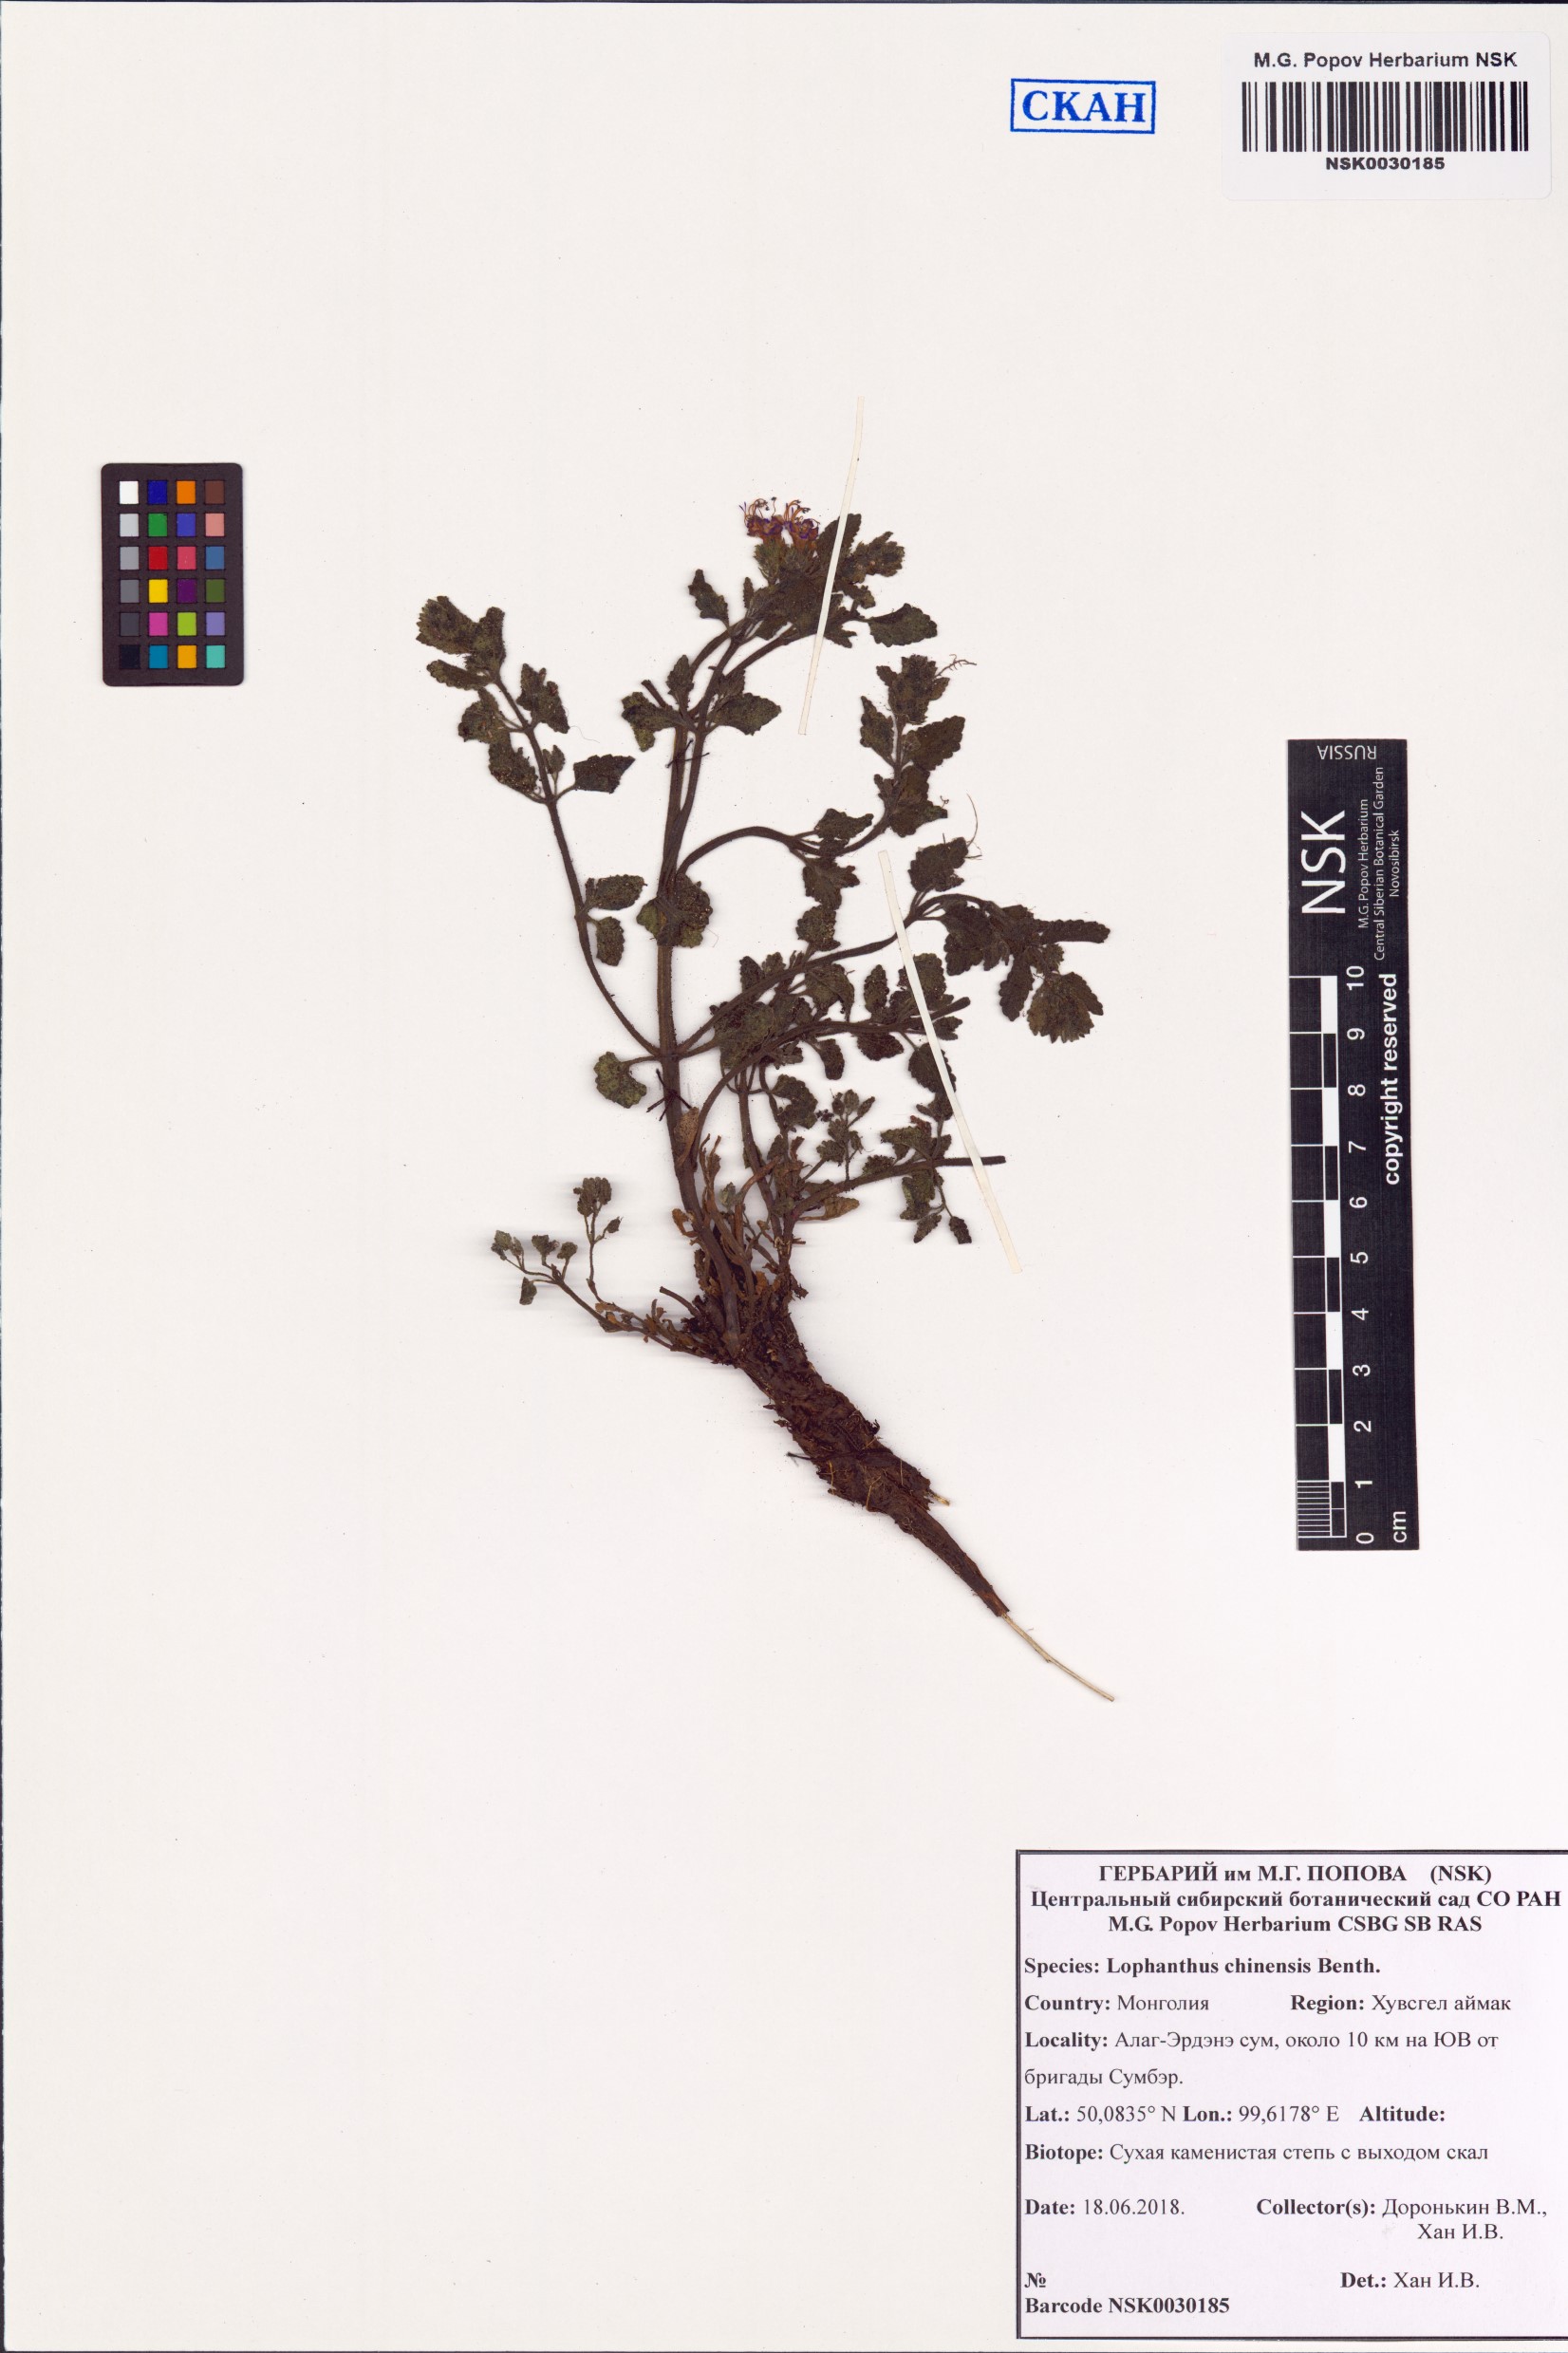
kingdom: Plantae
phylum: Tracheophyta
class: Magnoliopsida
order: Lamiales
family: Lamiaceae
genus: Nepeta
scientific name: Nepeta lophanthus
